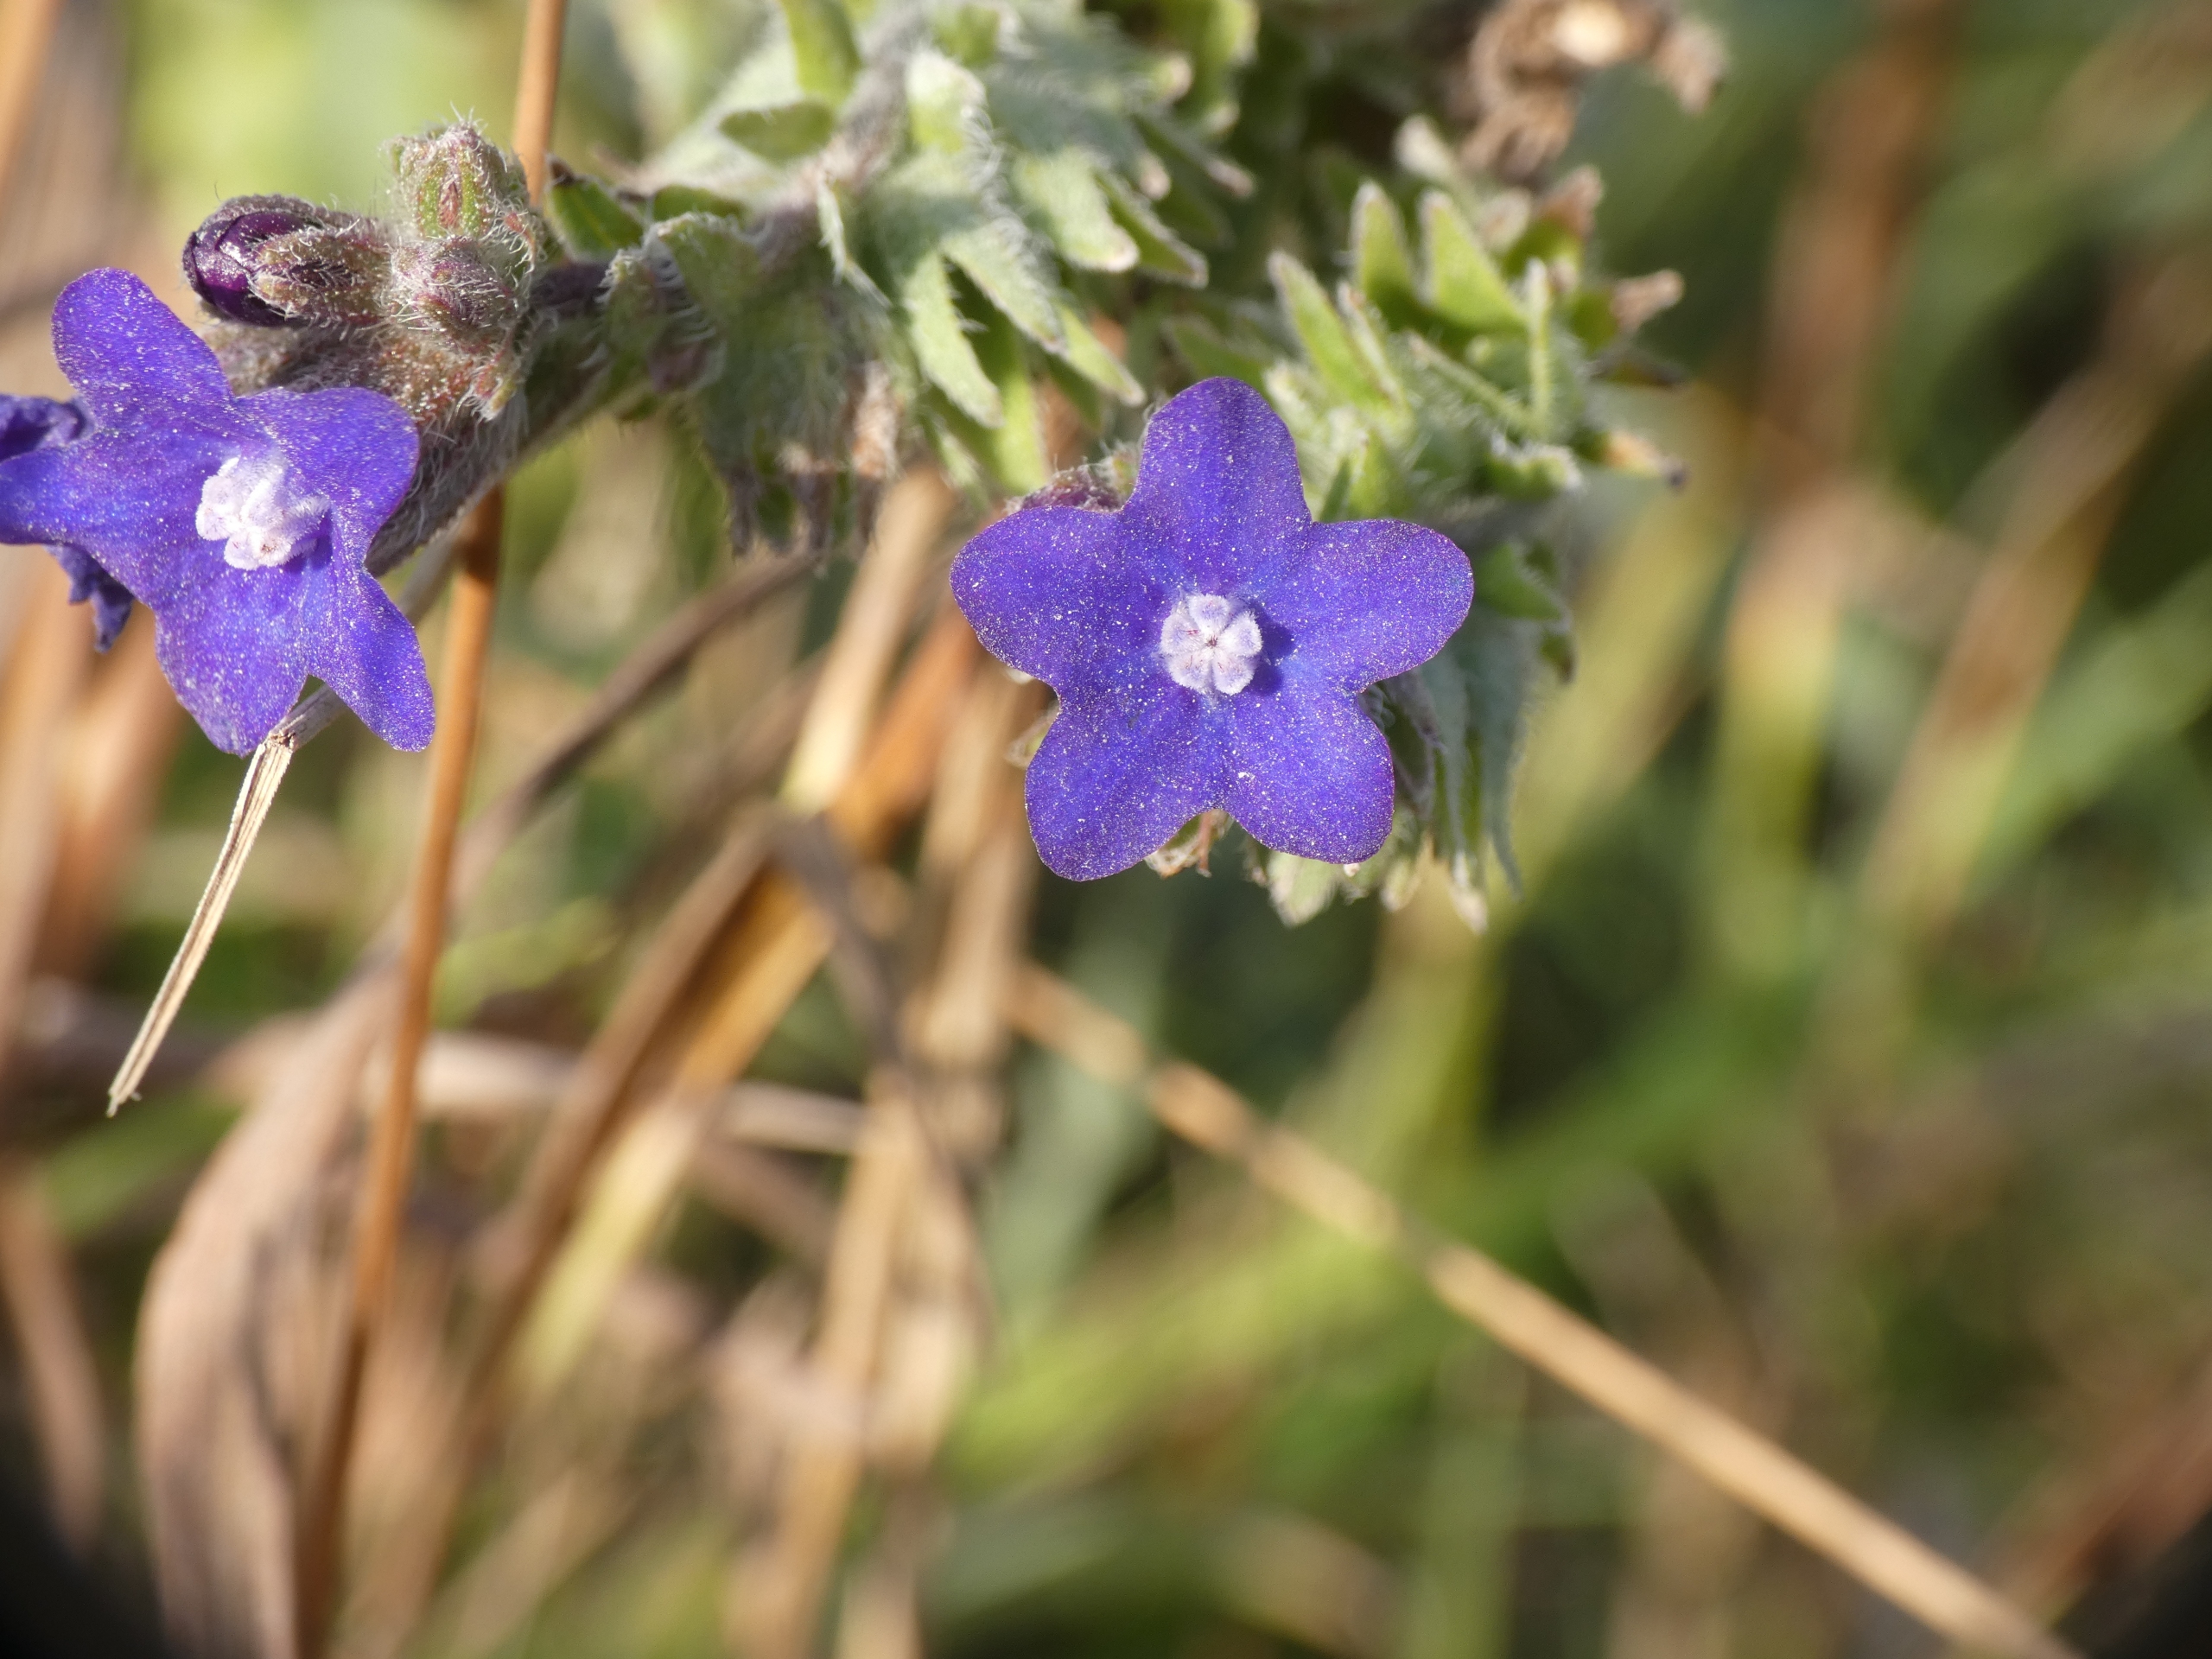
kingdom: Plantae
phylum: Tracheophyta
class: Magnoliopsida
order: Boraginales
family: Boraginaceae
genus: Anchusa
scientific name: Anchusa officinalis
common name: Læge-oksetunge
